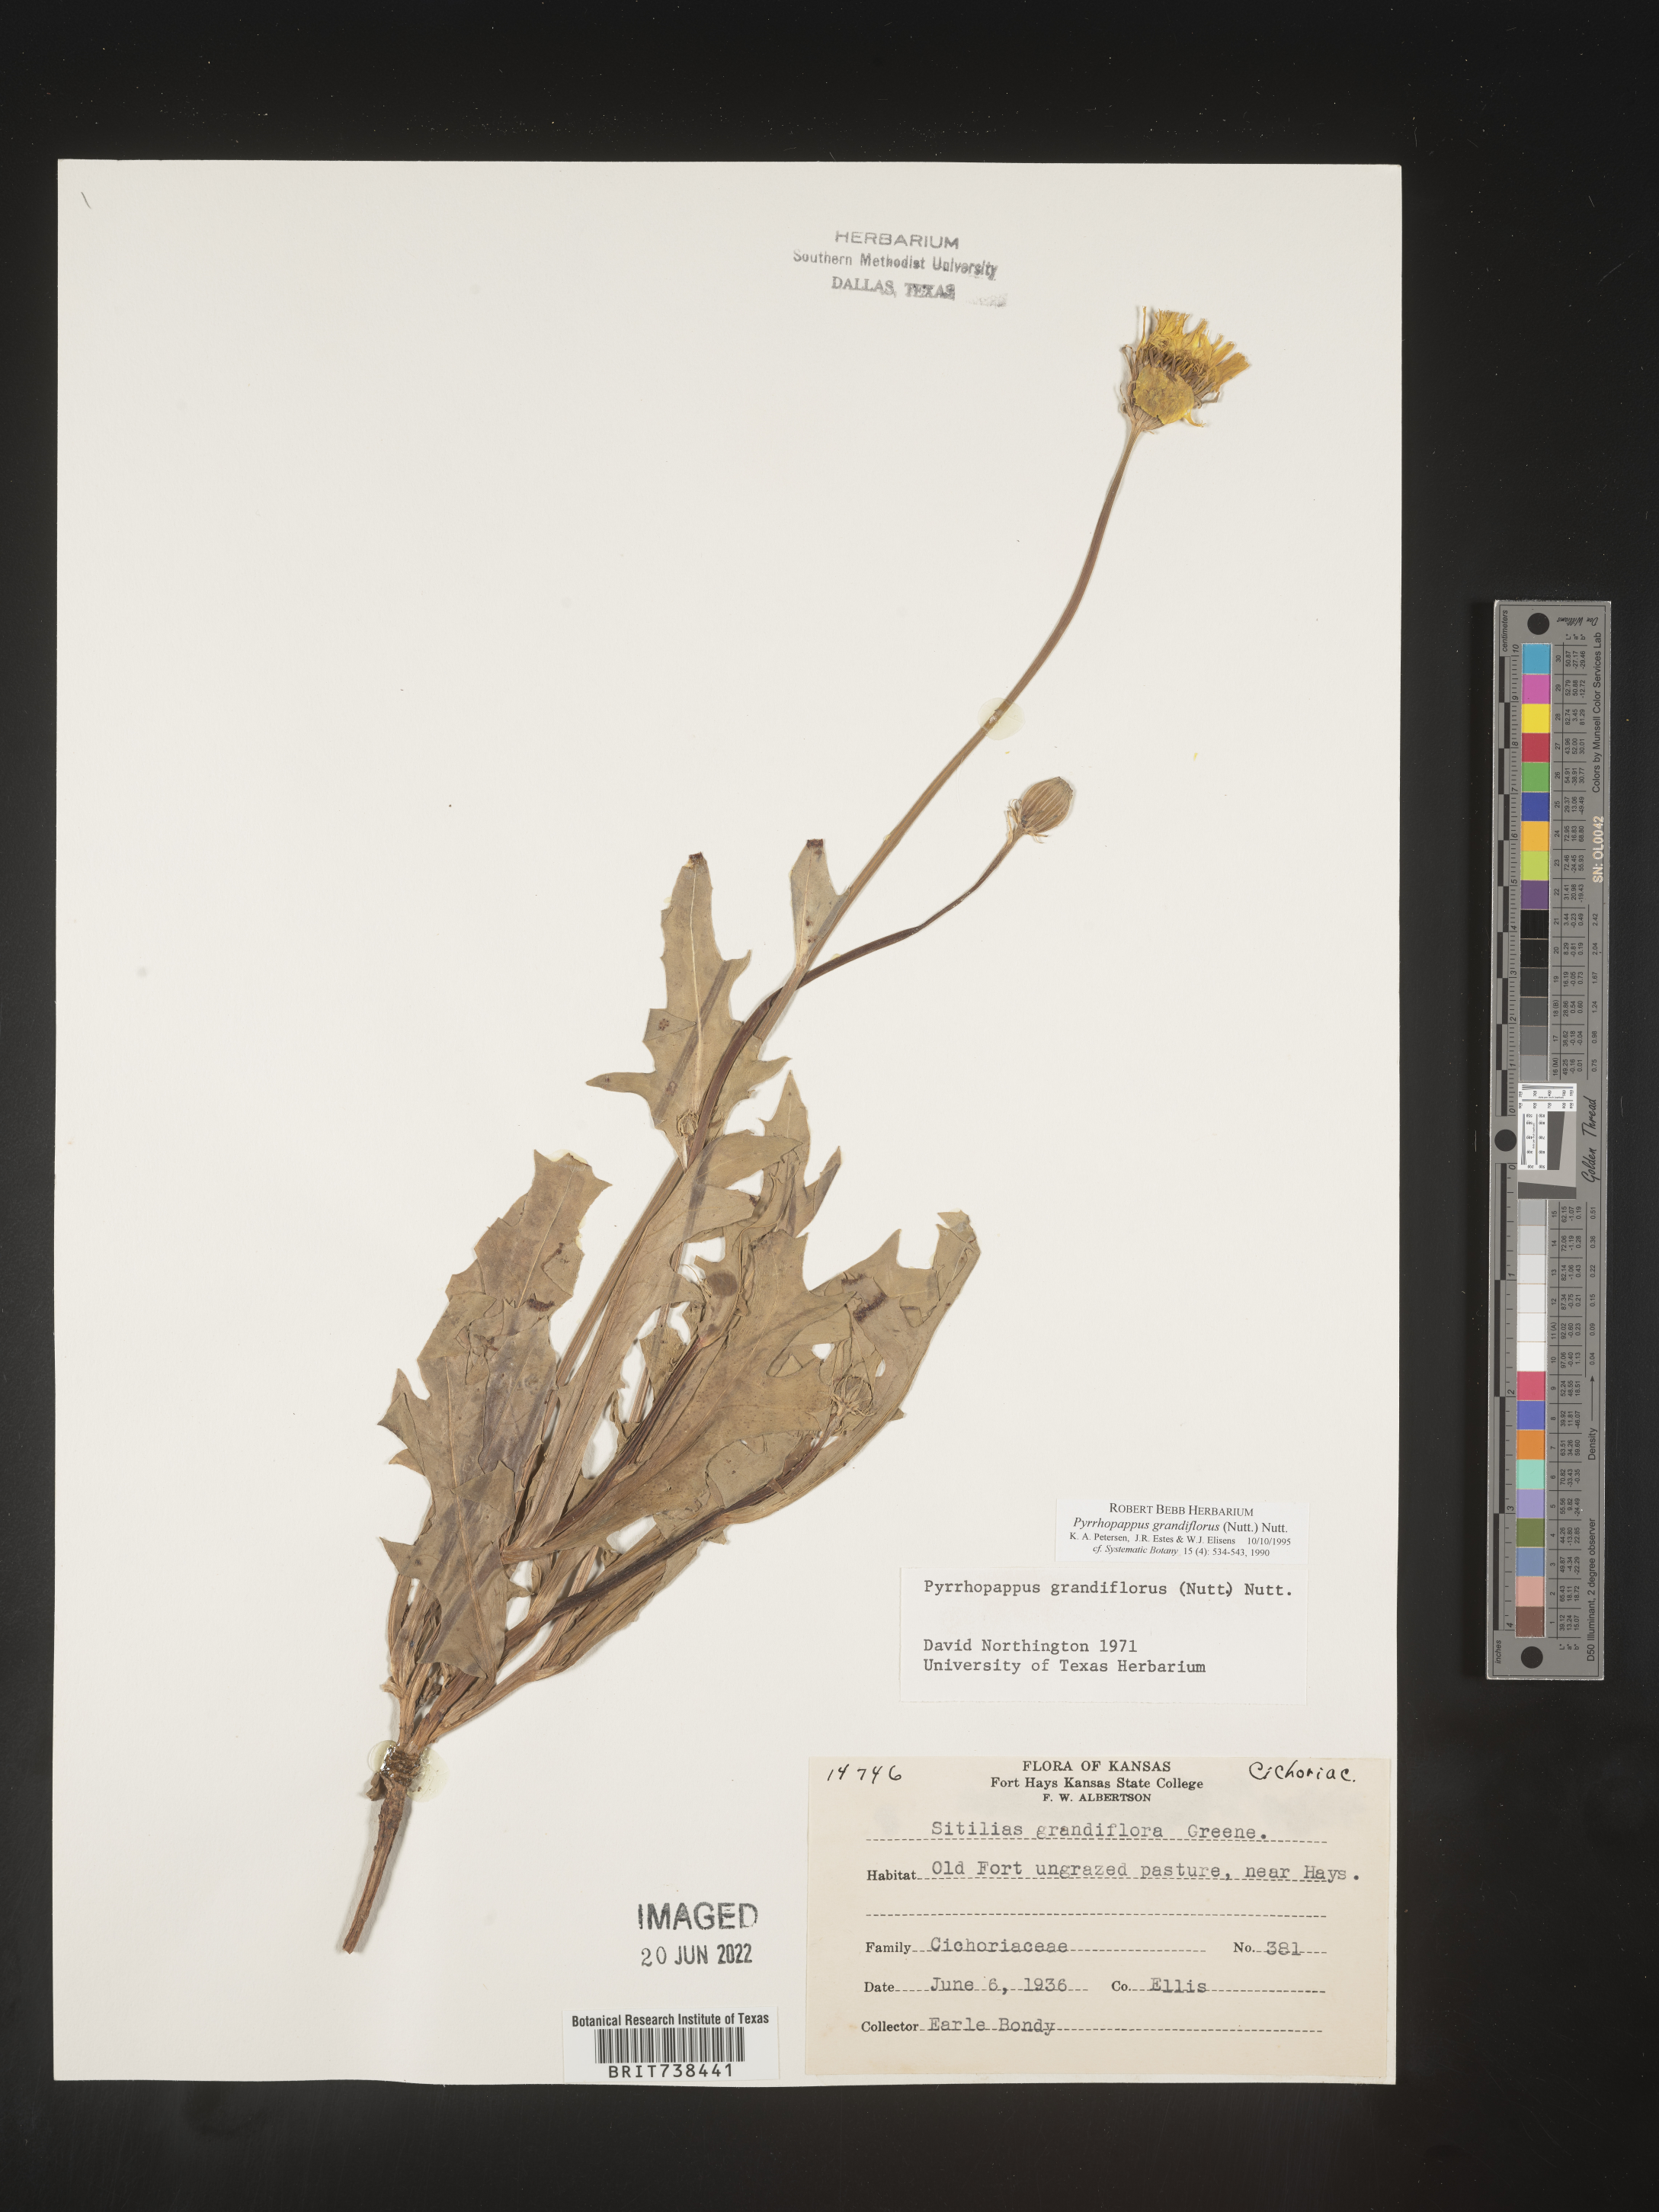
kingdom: Plantae
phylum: Tracheophyta
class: Magnoliopsida
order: Asterales
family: Asteraceae
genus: Pyrrhopappus
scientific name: Pyrrhopappus grandiflorus
